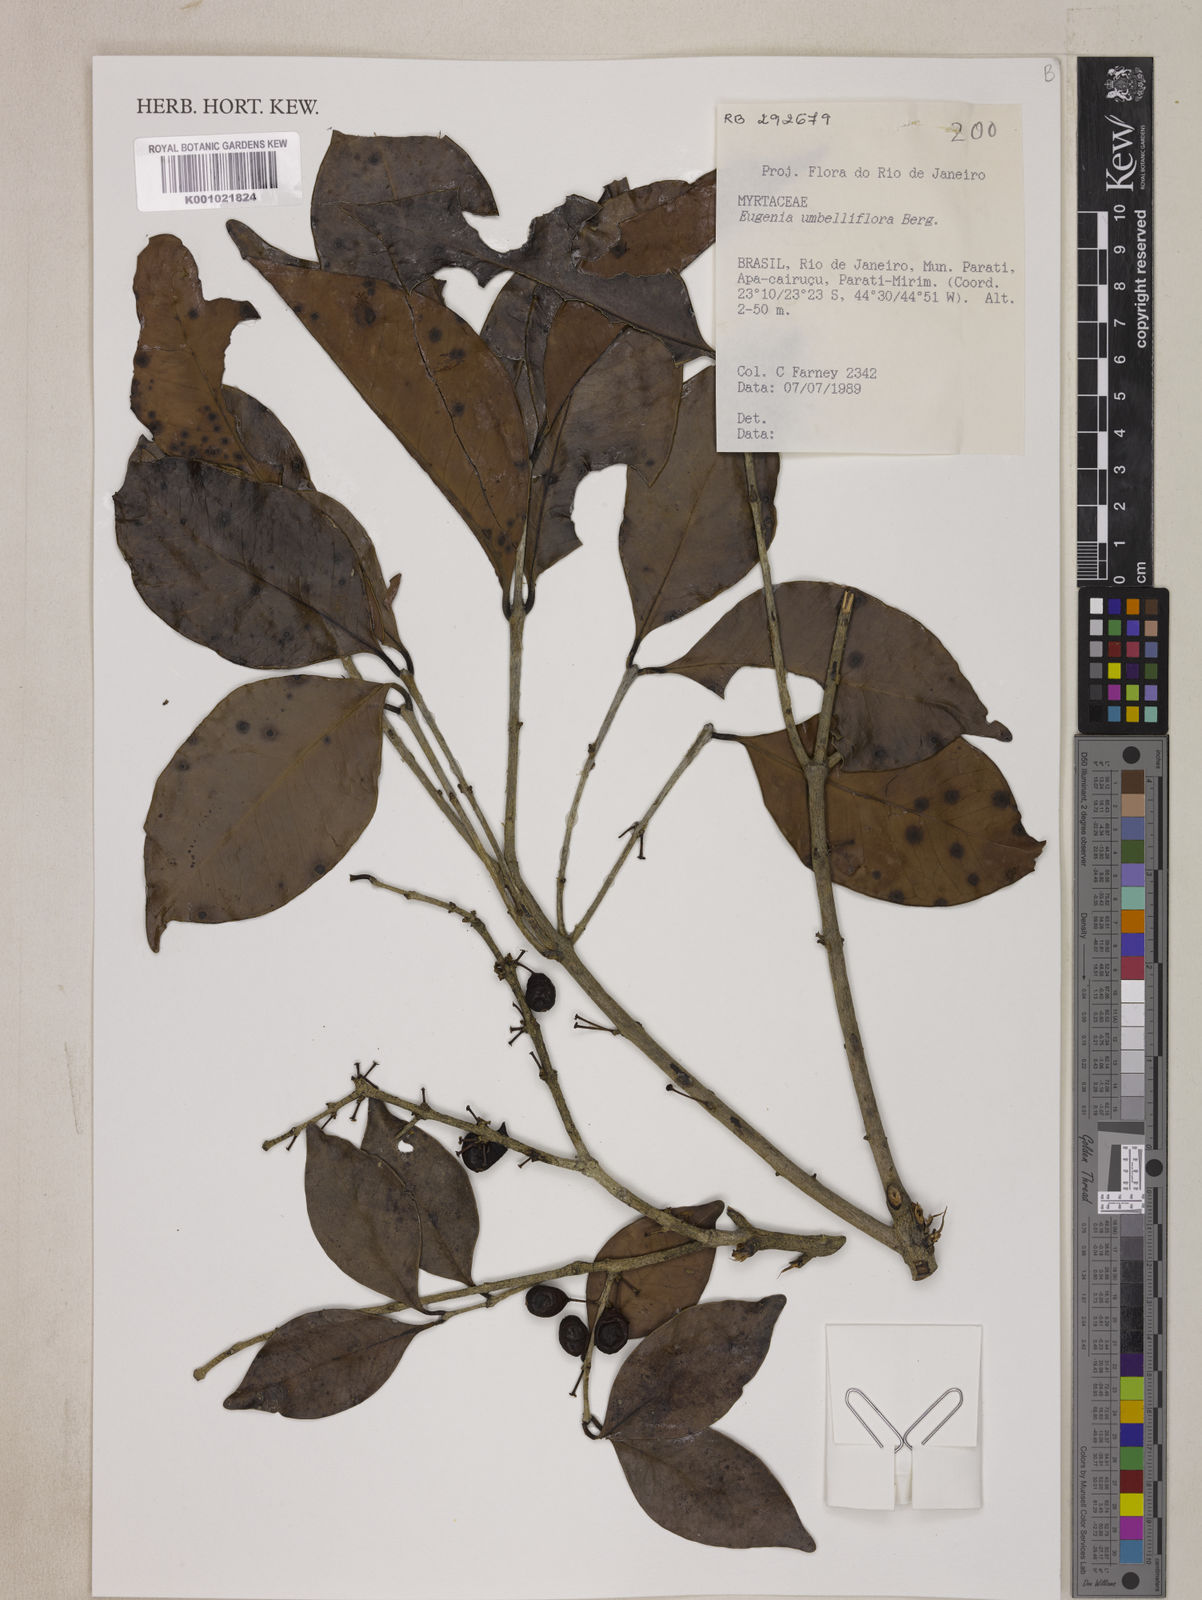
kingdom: Plantae
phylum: Tracheophyta
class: Magnoliopsida
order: Myrtales
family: Myrtaceae
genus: Eugenia
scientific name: Eugenia astringens
